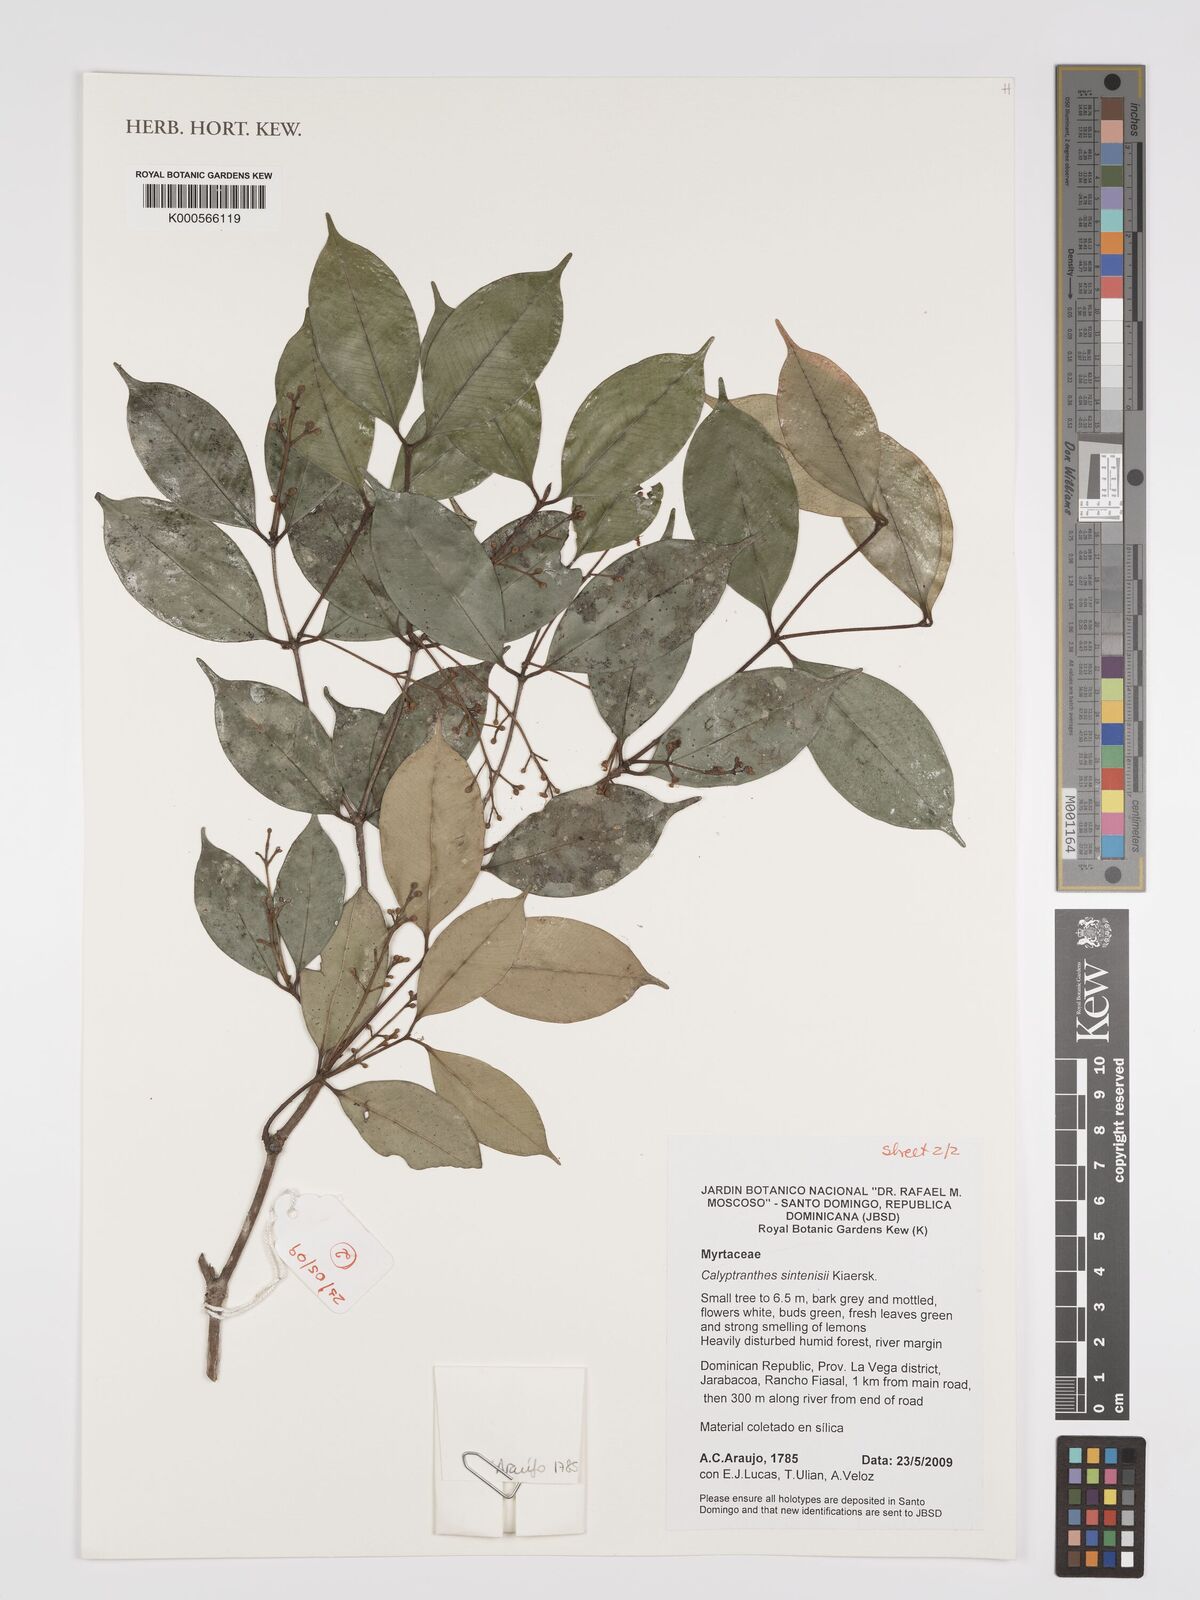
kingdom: Plantae
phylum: Tracheophyta
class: Magnoliopsida
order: Myrtales
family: Myrtaceae
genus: Myrcia
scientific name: Myrcia neosintenisii
